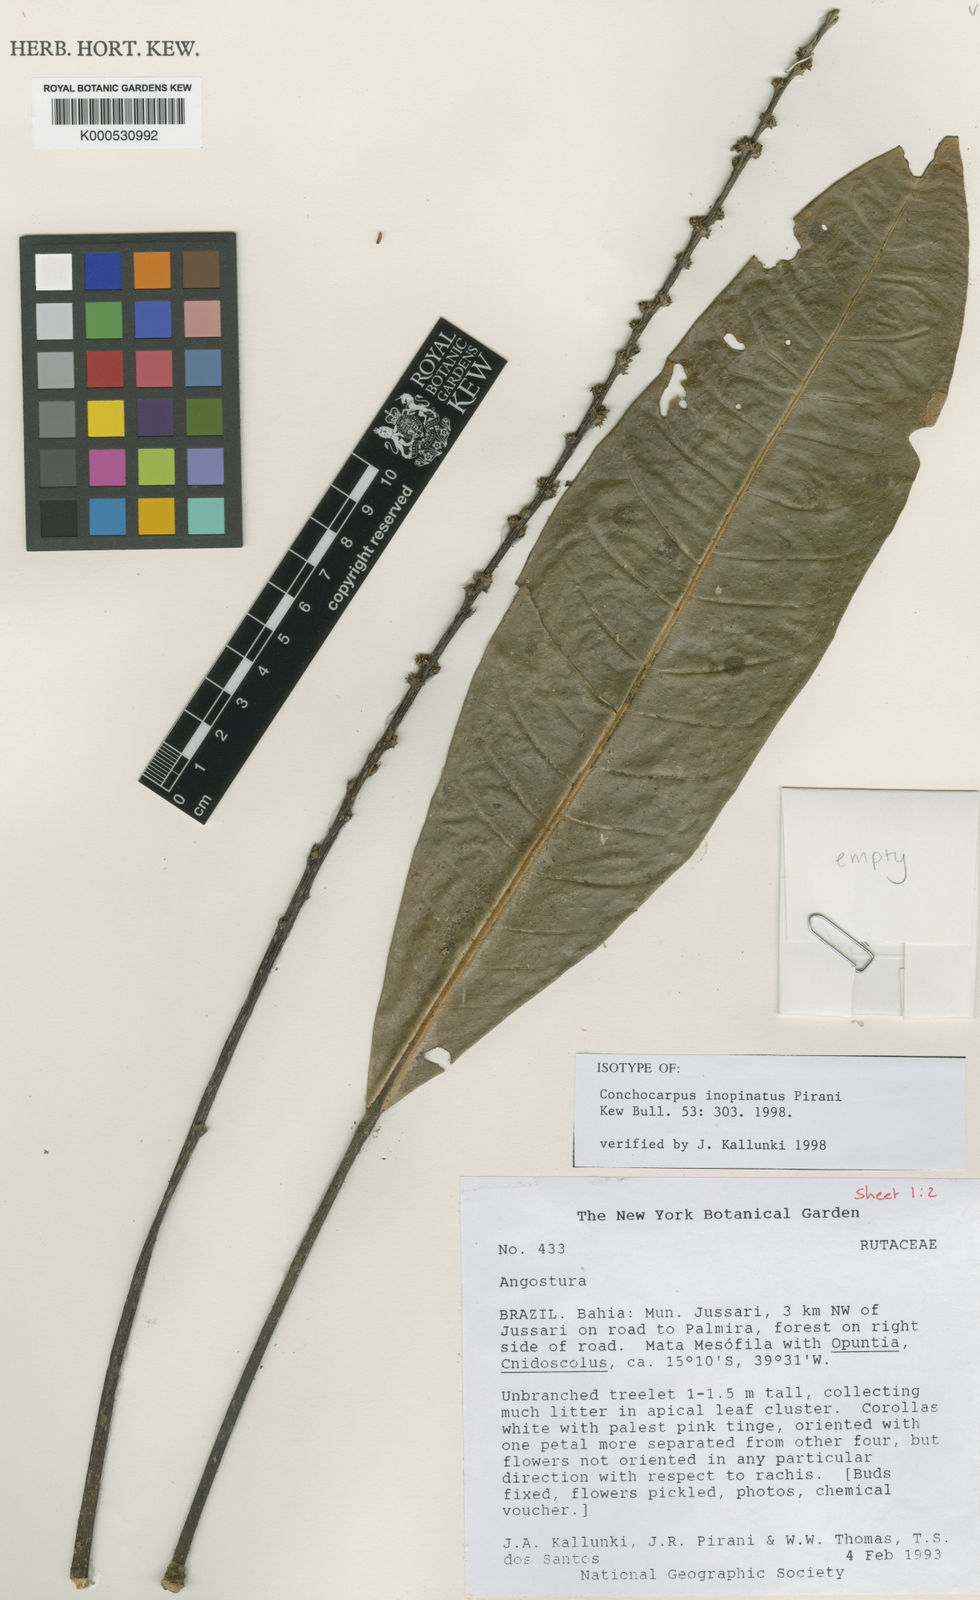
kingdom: Plantae
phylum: Tracheophyta
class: Magnoliopsida
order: Sapindales
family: Rutaceae
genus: Conchocarpus
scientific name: Conchocarpus inopinatus
